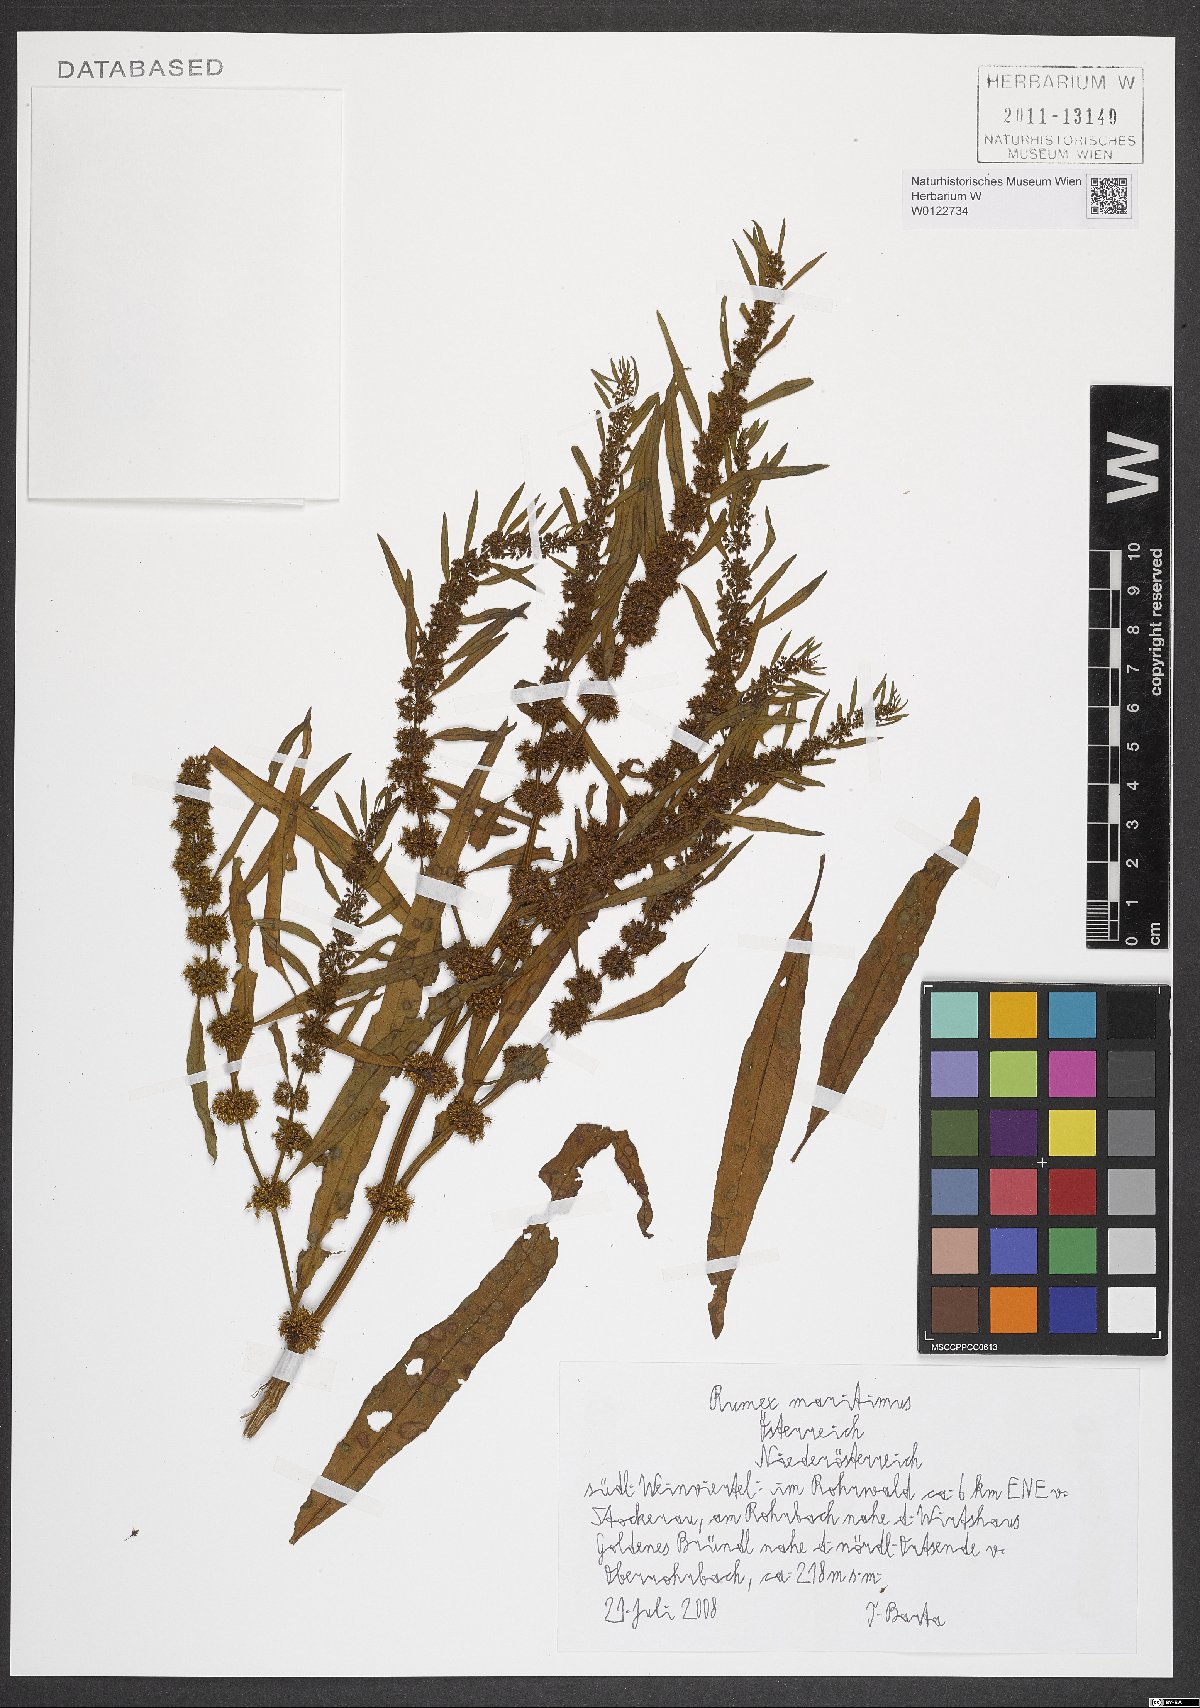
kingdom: Plantae
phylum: Tracheophyta
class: Magnoliopsida
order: Caryophyllales
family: Polygonaceae
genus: Rumex
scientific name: Rumex maritimus
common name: Golden dock
